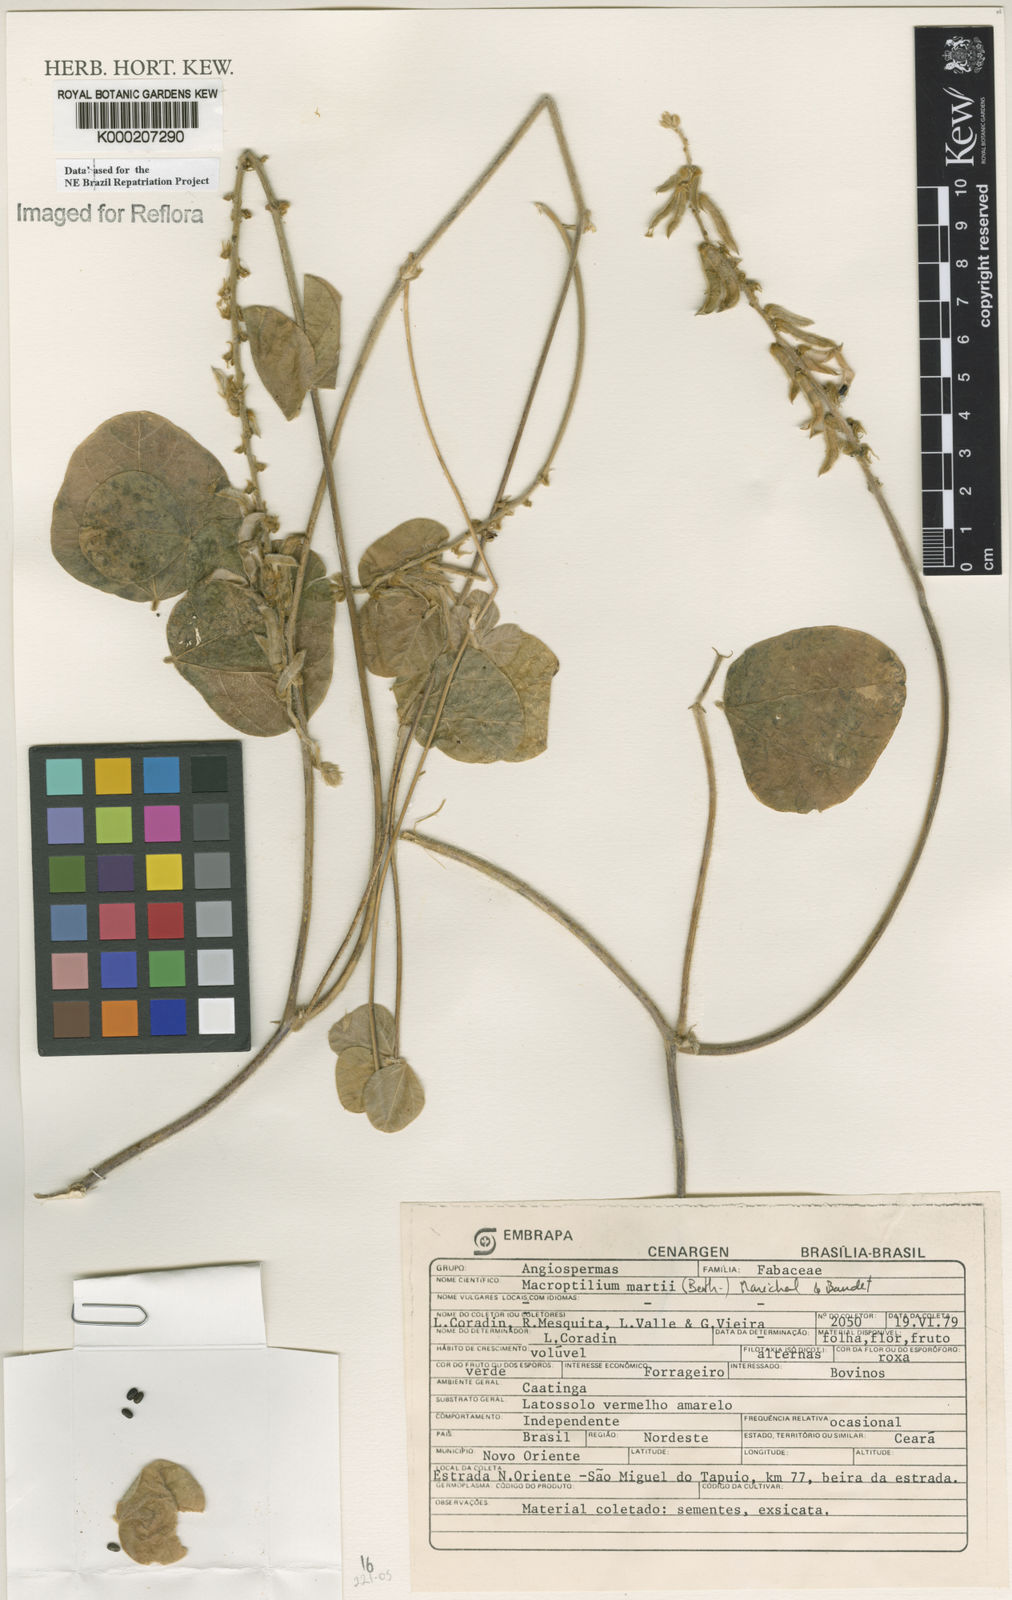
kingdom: Plantae
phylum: Tracheophyta
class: Magnoliopsida
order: Fabales
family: Fabaceae
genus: Macroptilium
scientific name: Macroptilium
